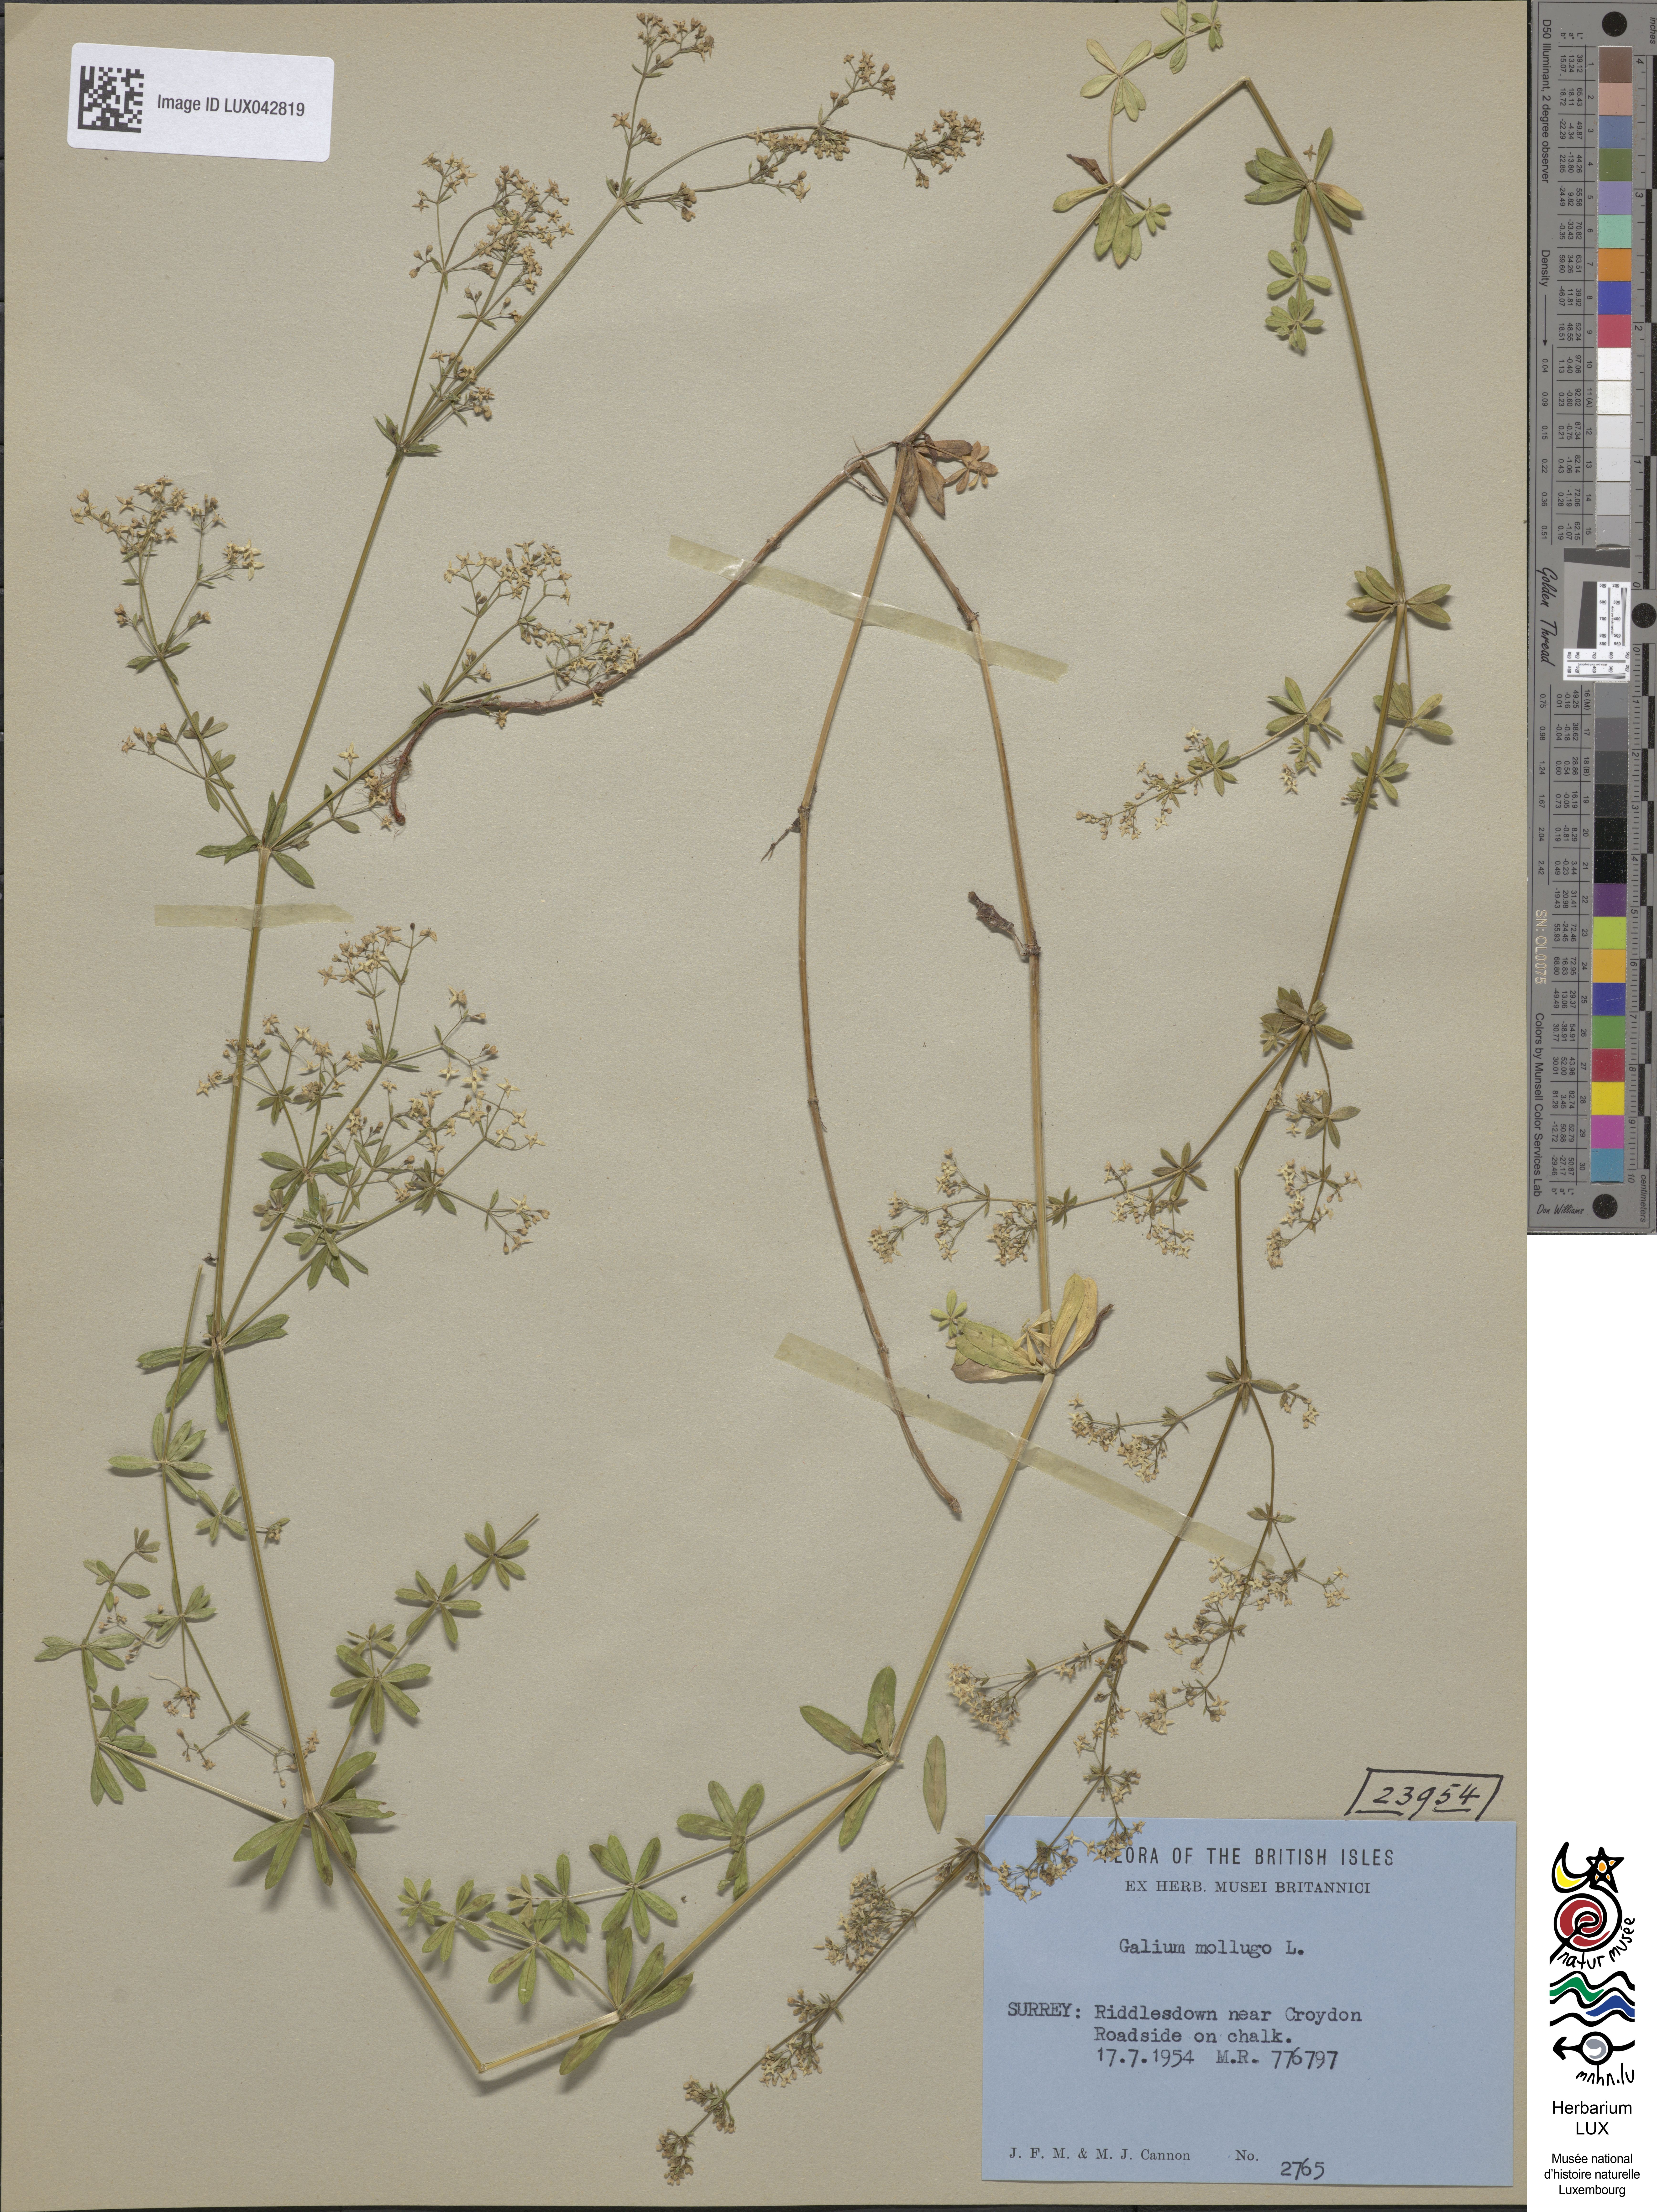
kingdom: Plantae
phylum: Tracheophyta
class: Magnoliopsida
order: Gentianales
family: Rubiaceae
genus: Galium
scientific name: Galium mollugo
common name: Hedge bedstraw
